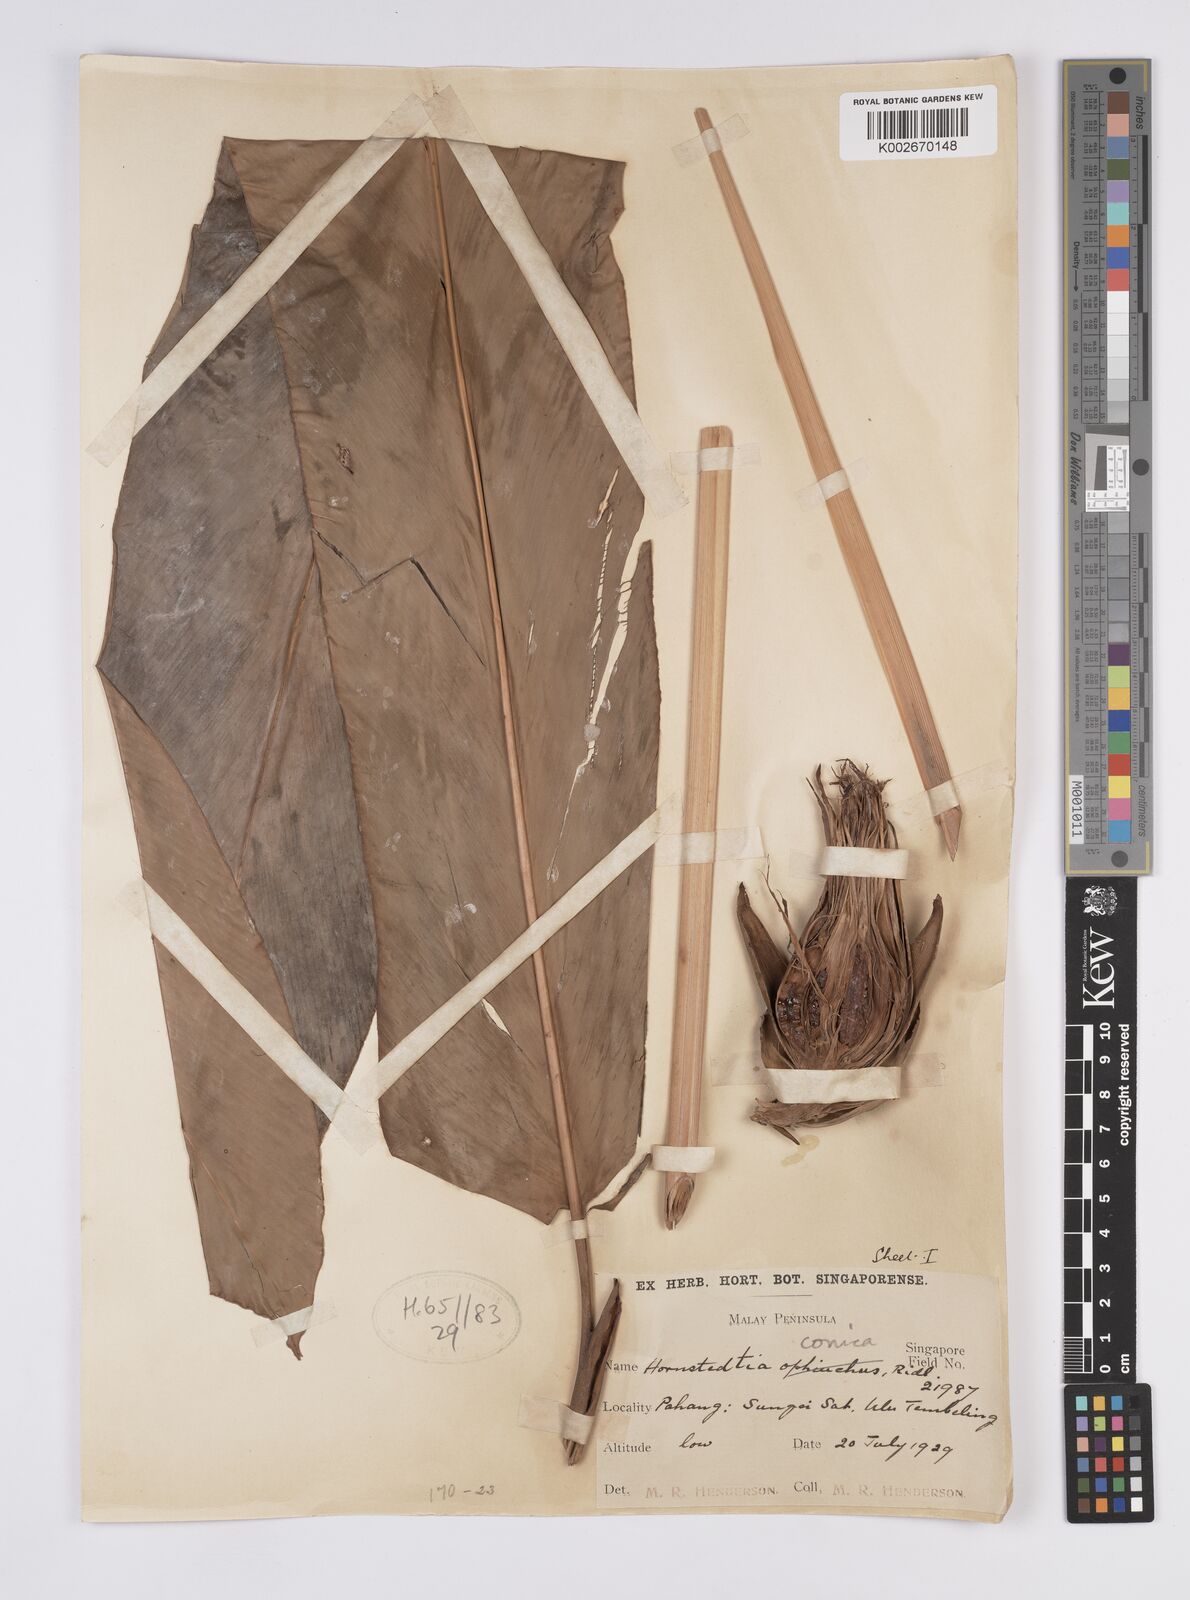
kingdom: Plantae
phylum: Tracheophyta
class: Liliopsida
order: Zingiberales
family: Zingiberaceae
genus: Hornstedtia
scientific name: Hornstedtia conica
